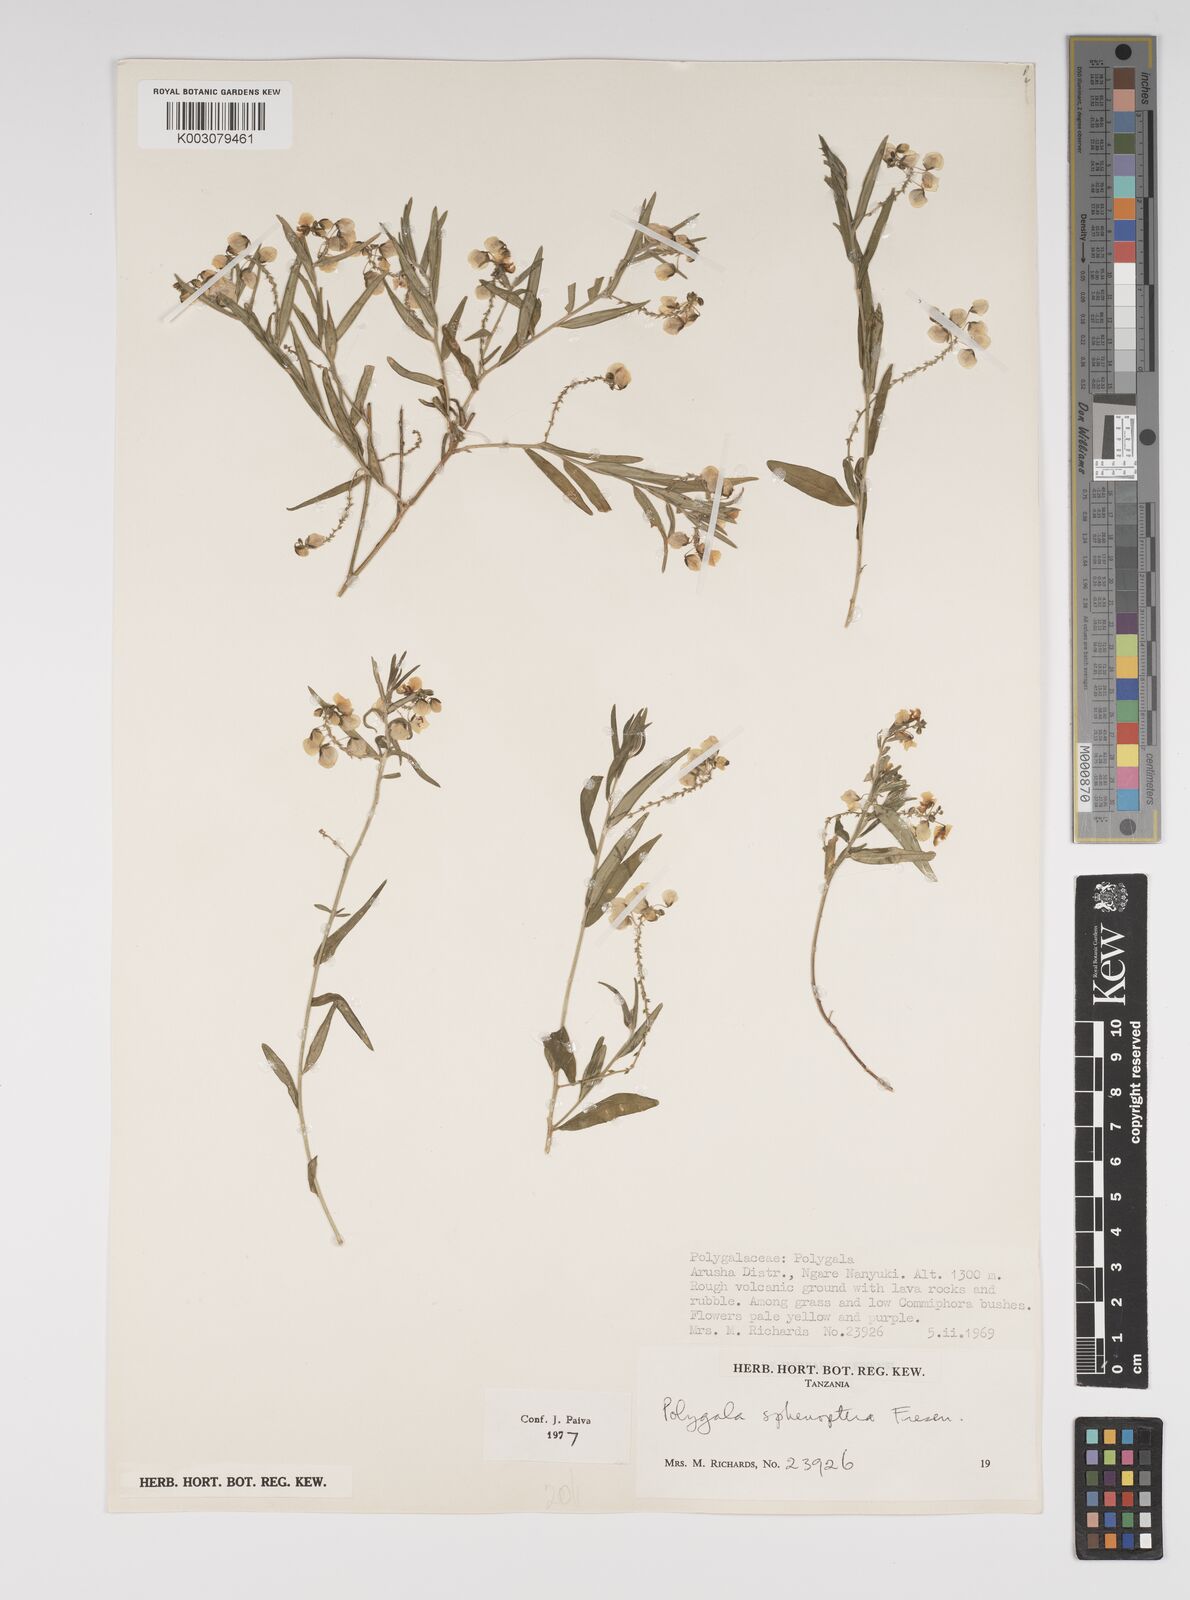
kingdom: Plantae
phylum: Tracheophyta
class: Magnoliopsida
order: Fabales
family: Polygalaceae
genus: Polygala
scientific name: Polygala sphenoptera
